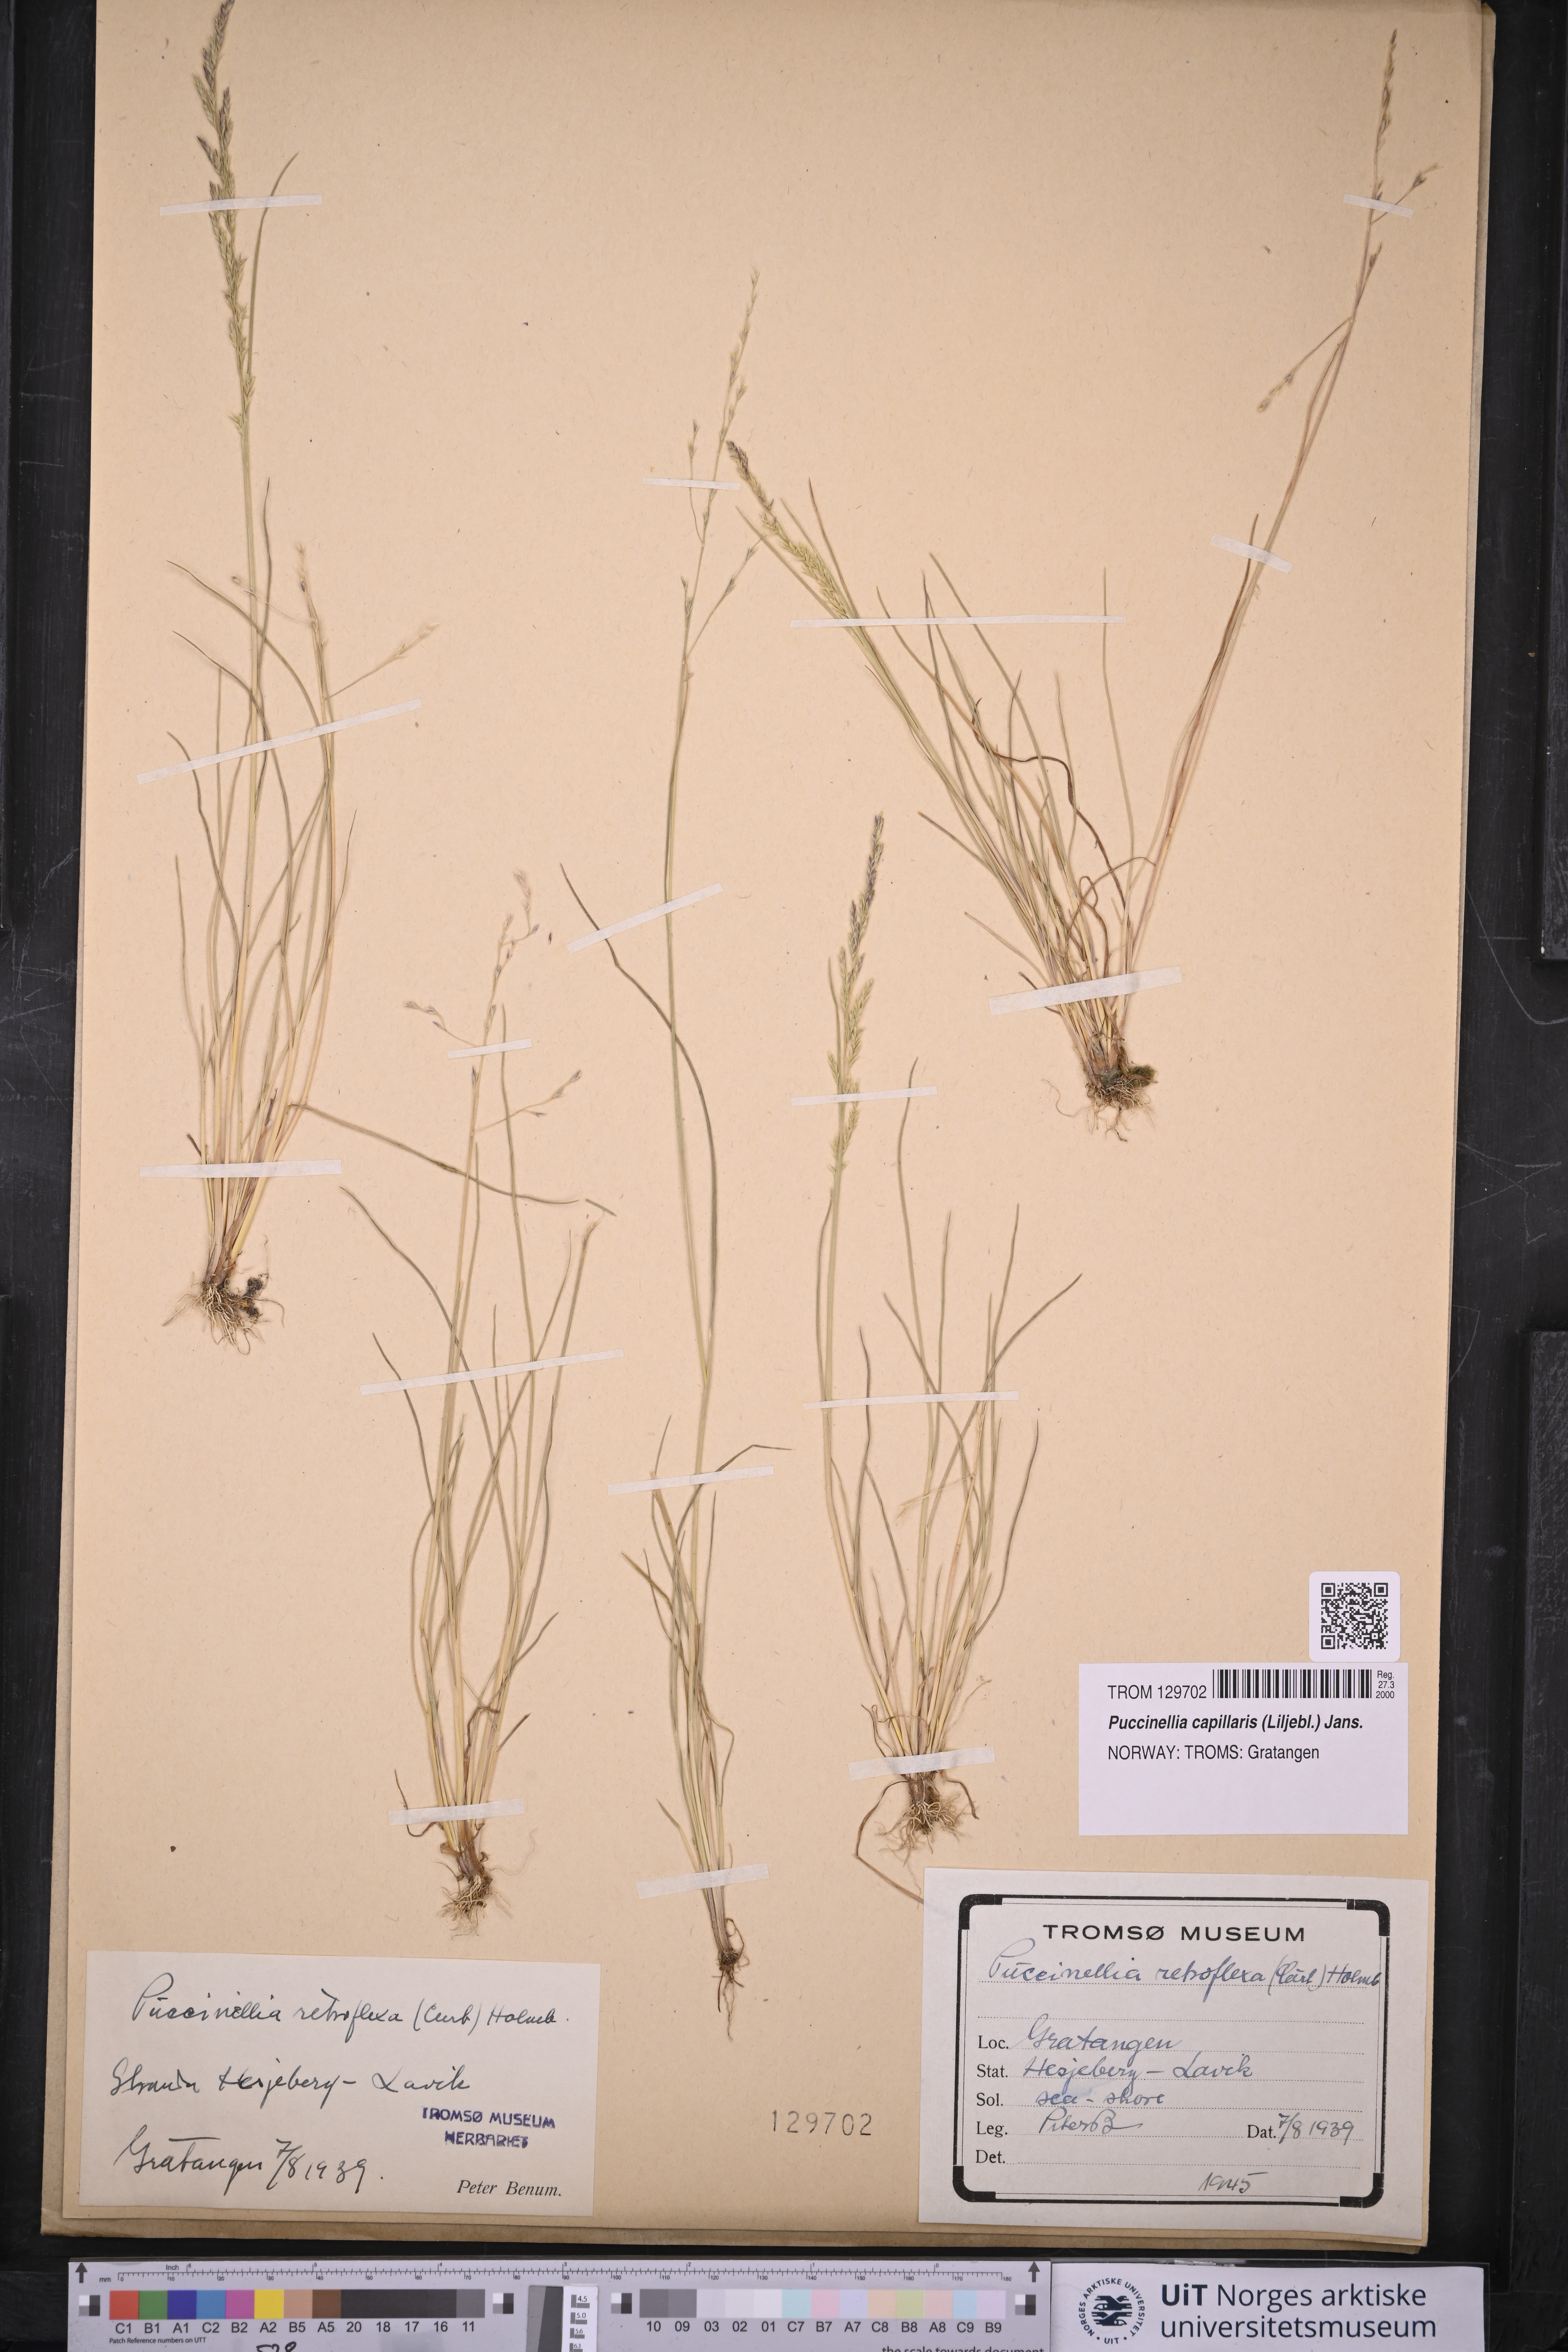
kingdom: Plantae
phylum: Tracheophyta
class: Liliopsida
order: Poales
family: Poaceae
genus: Puccinellia
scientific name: Puccinellia distans
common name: Weeping alkaligrass
